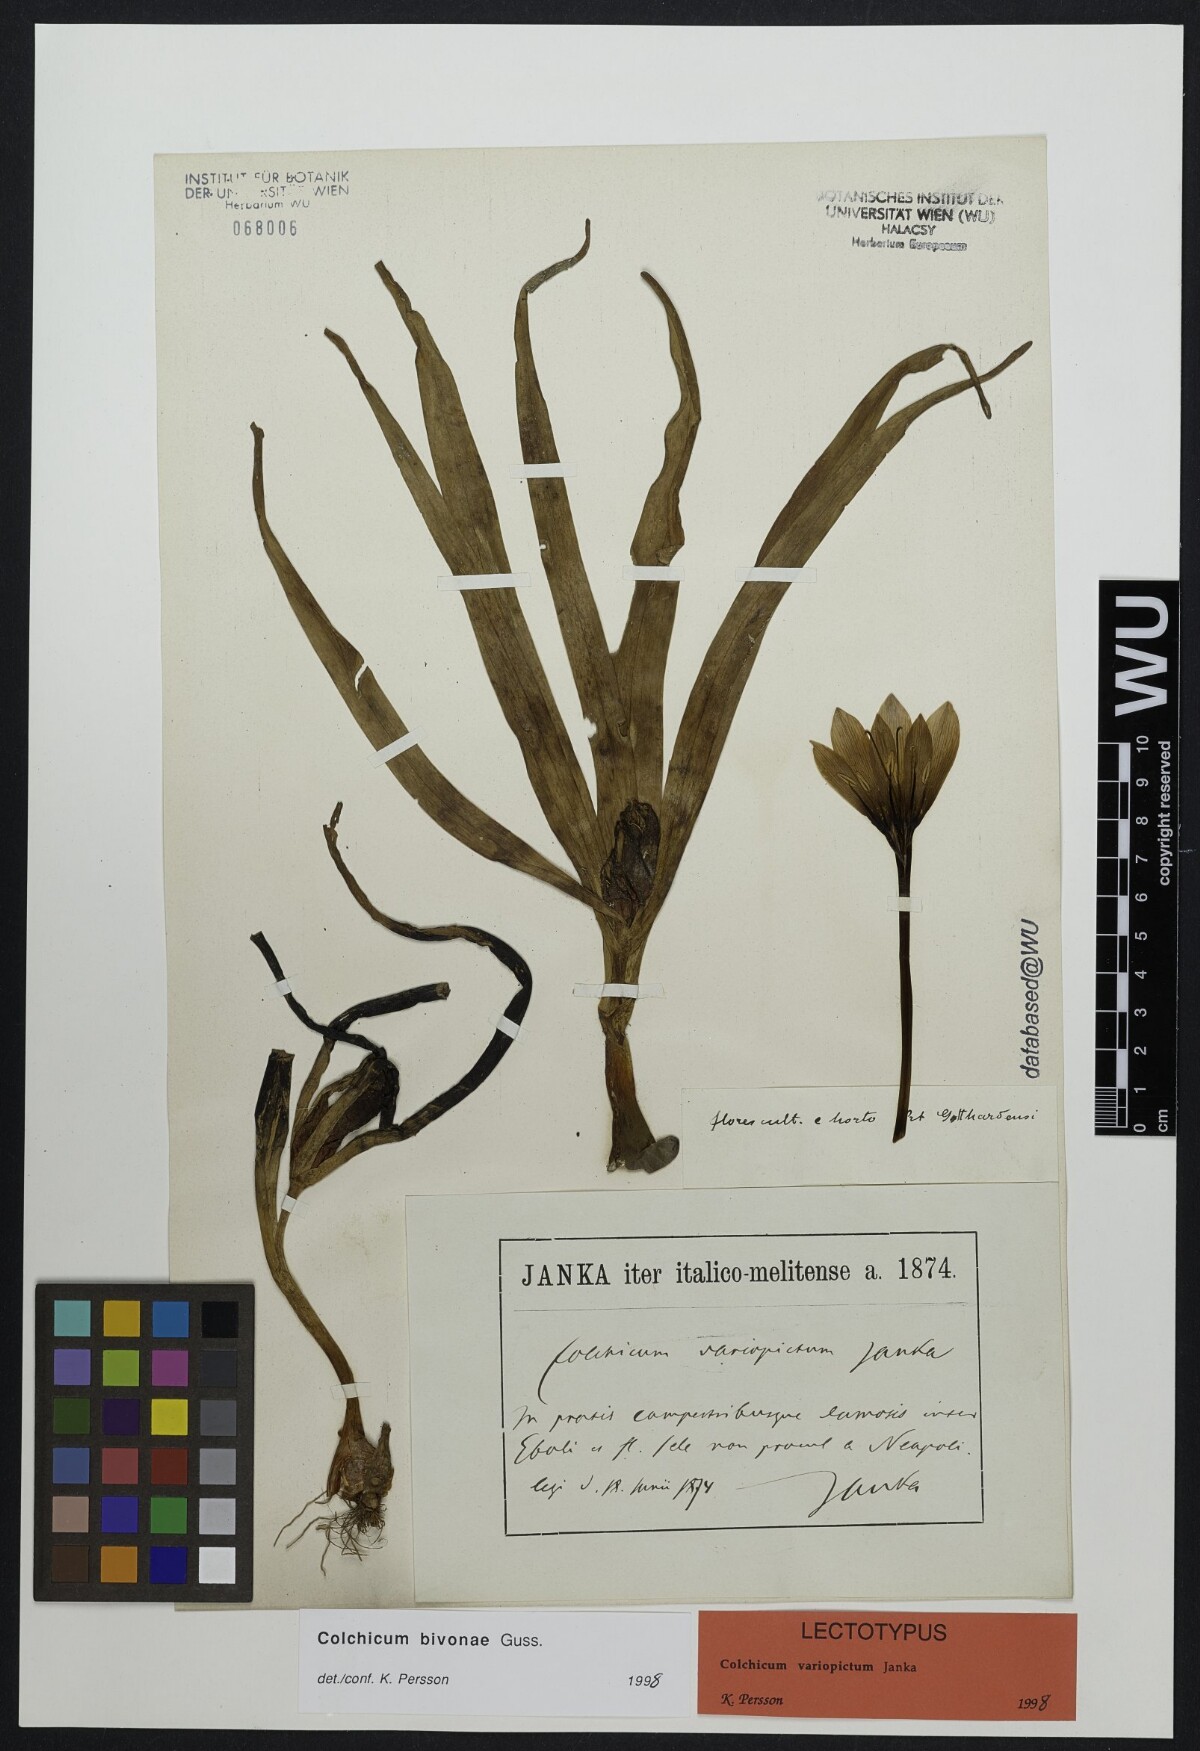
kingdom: Plantae
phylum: Tracheophyta
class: Liliopsida
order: Liliales
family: Colchicaceae
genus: Colchicum
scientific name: Colchicum bivonae
